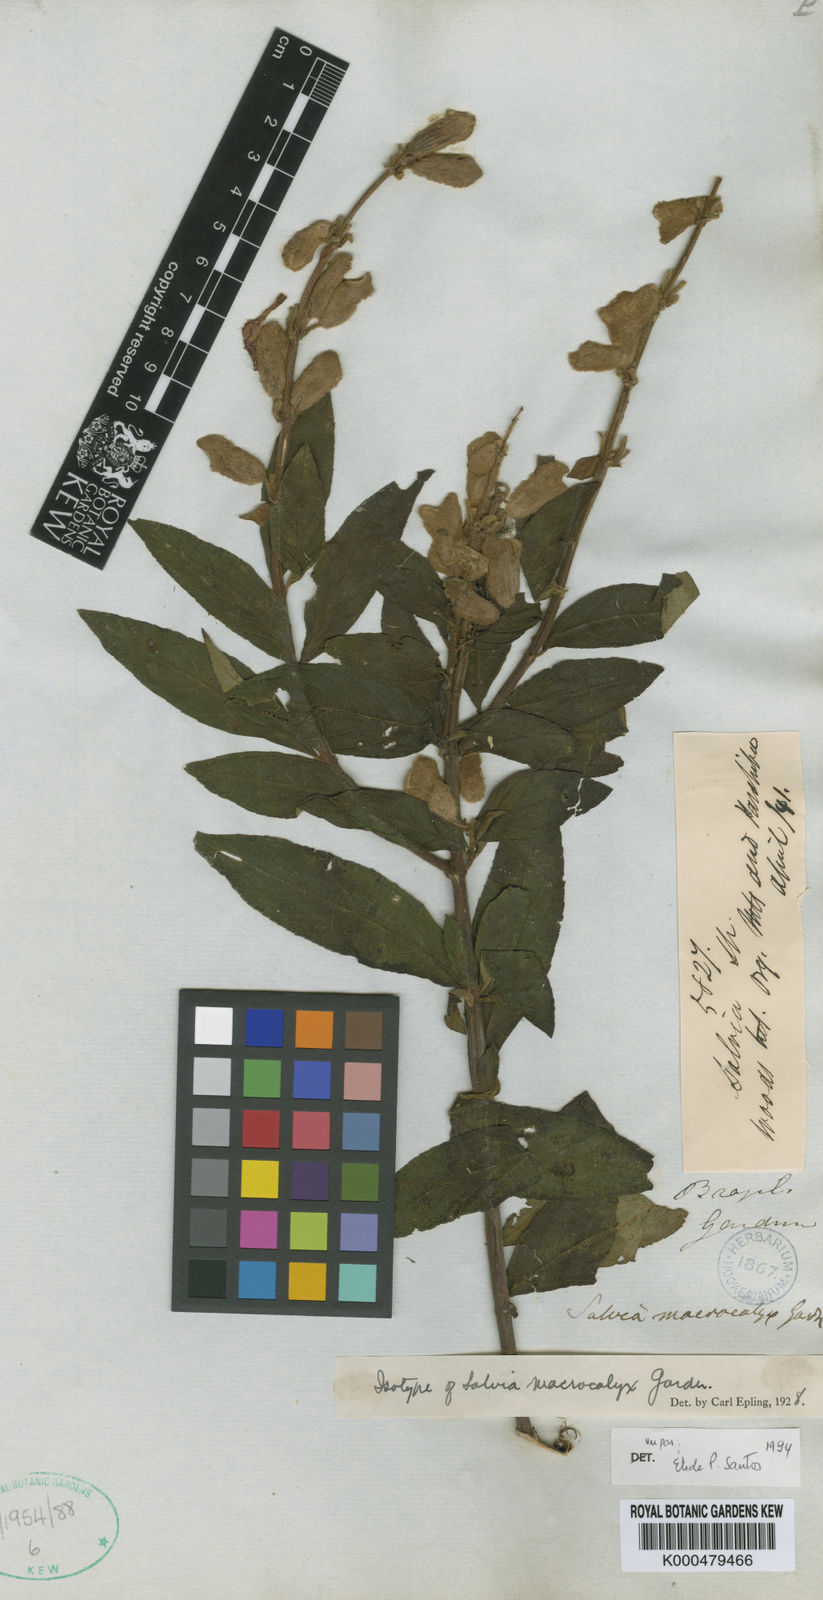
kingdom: Plantae
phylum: Tracheophyta
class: Magnoliopsida
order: Lamiales
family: Lamiaceae
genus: Salvia
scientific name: Salvia macrocalyx
